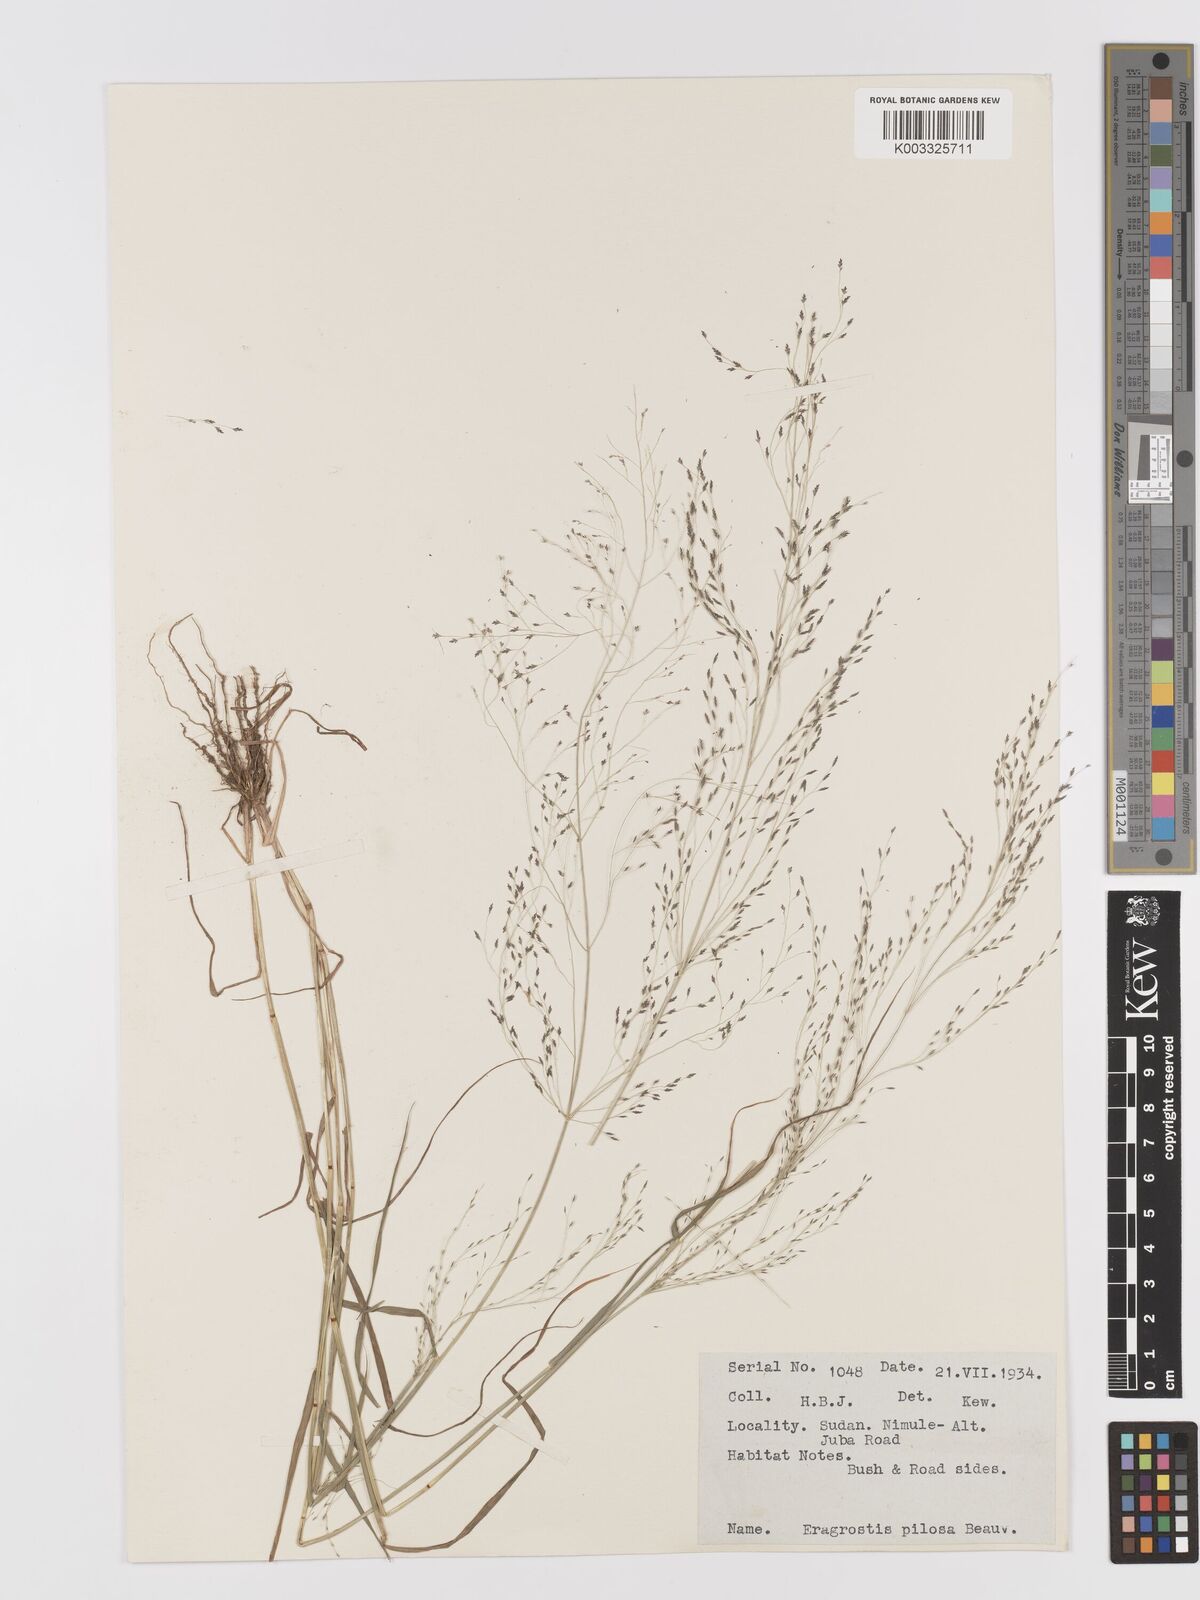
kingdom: Plantae
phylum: Tracheophyta
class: Liliopsida
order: Poales
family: Poaceae
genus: Eragrostis
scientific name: Eragrostis pilosa
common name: Indian lovegrass
